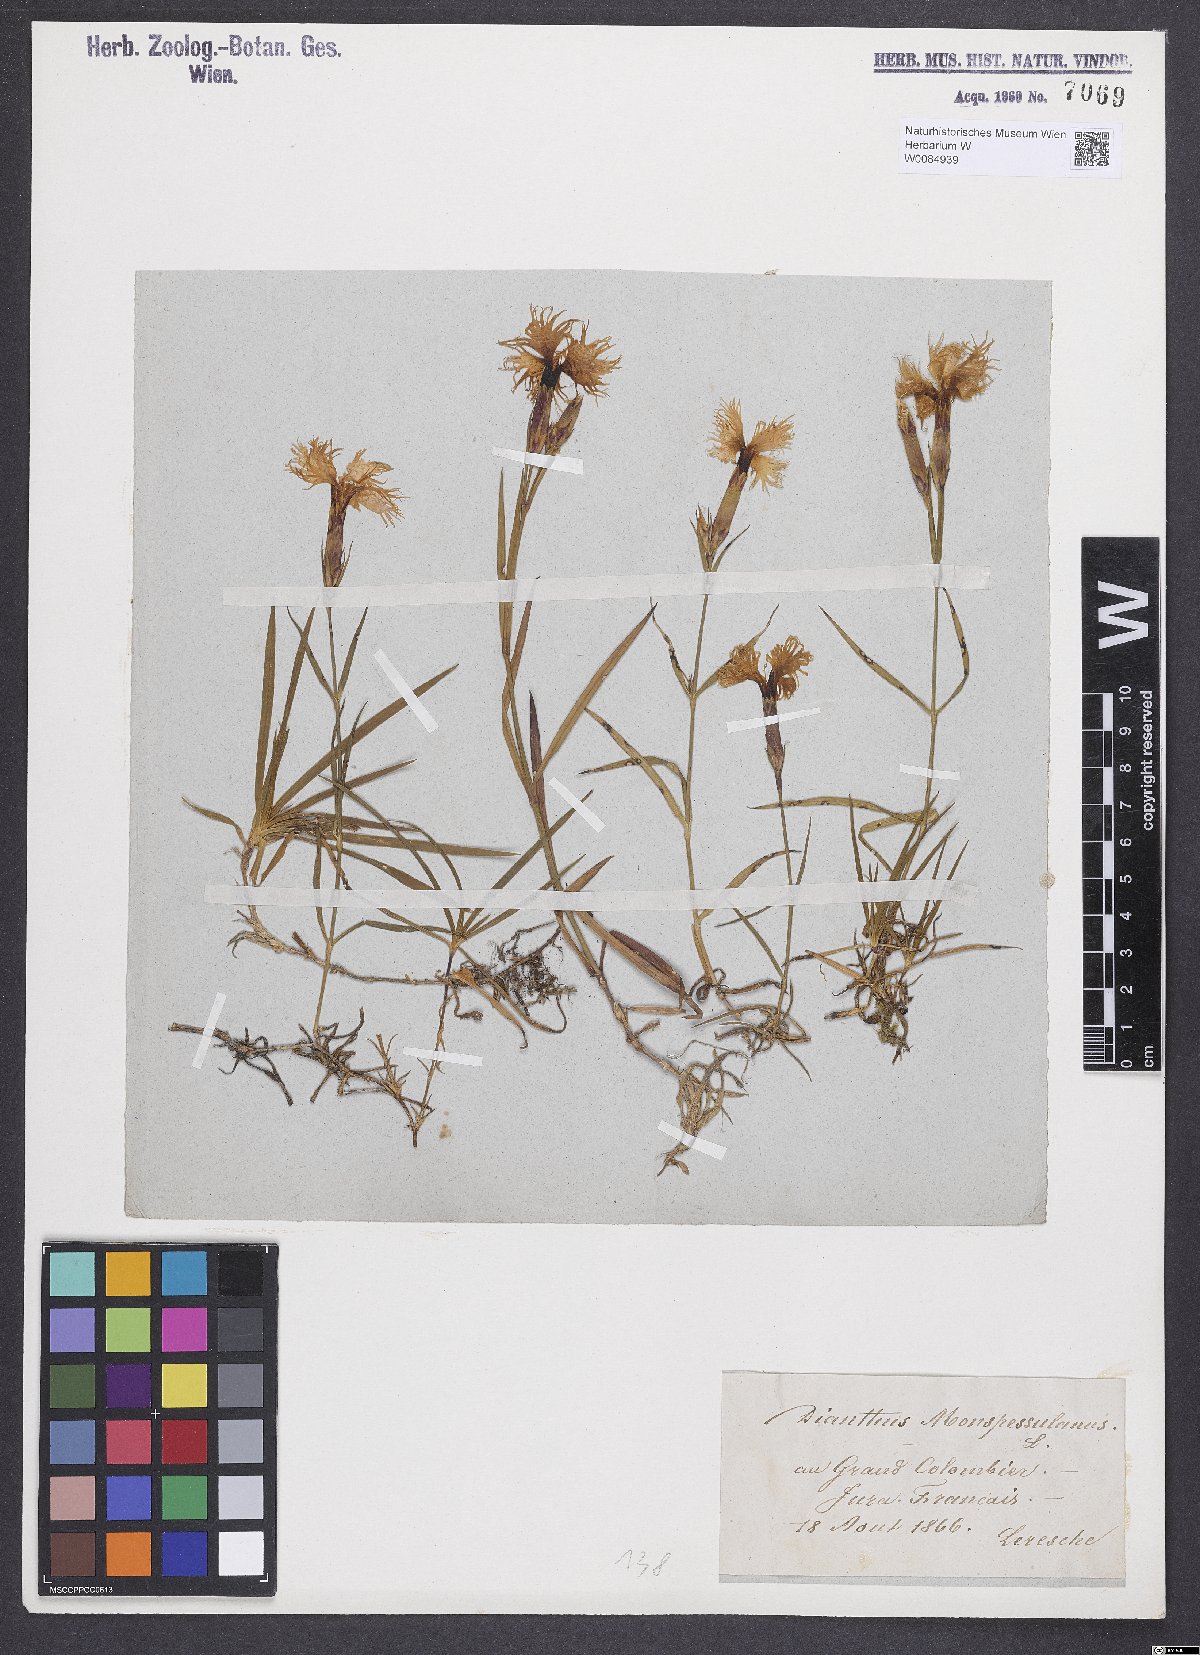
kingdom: Plantae
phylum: Tracheophyta
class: Magnoliopsida
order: Caryophyllales
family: Caryophyllaceae
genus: Dianthus
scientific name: Dianthus hyssopifolius
